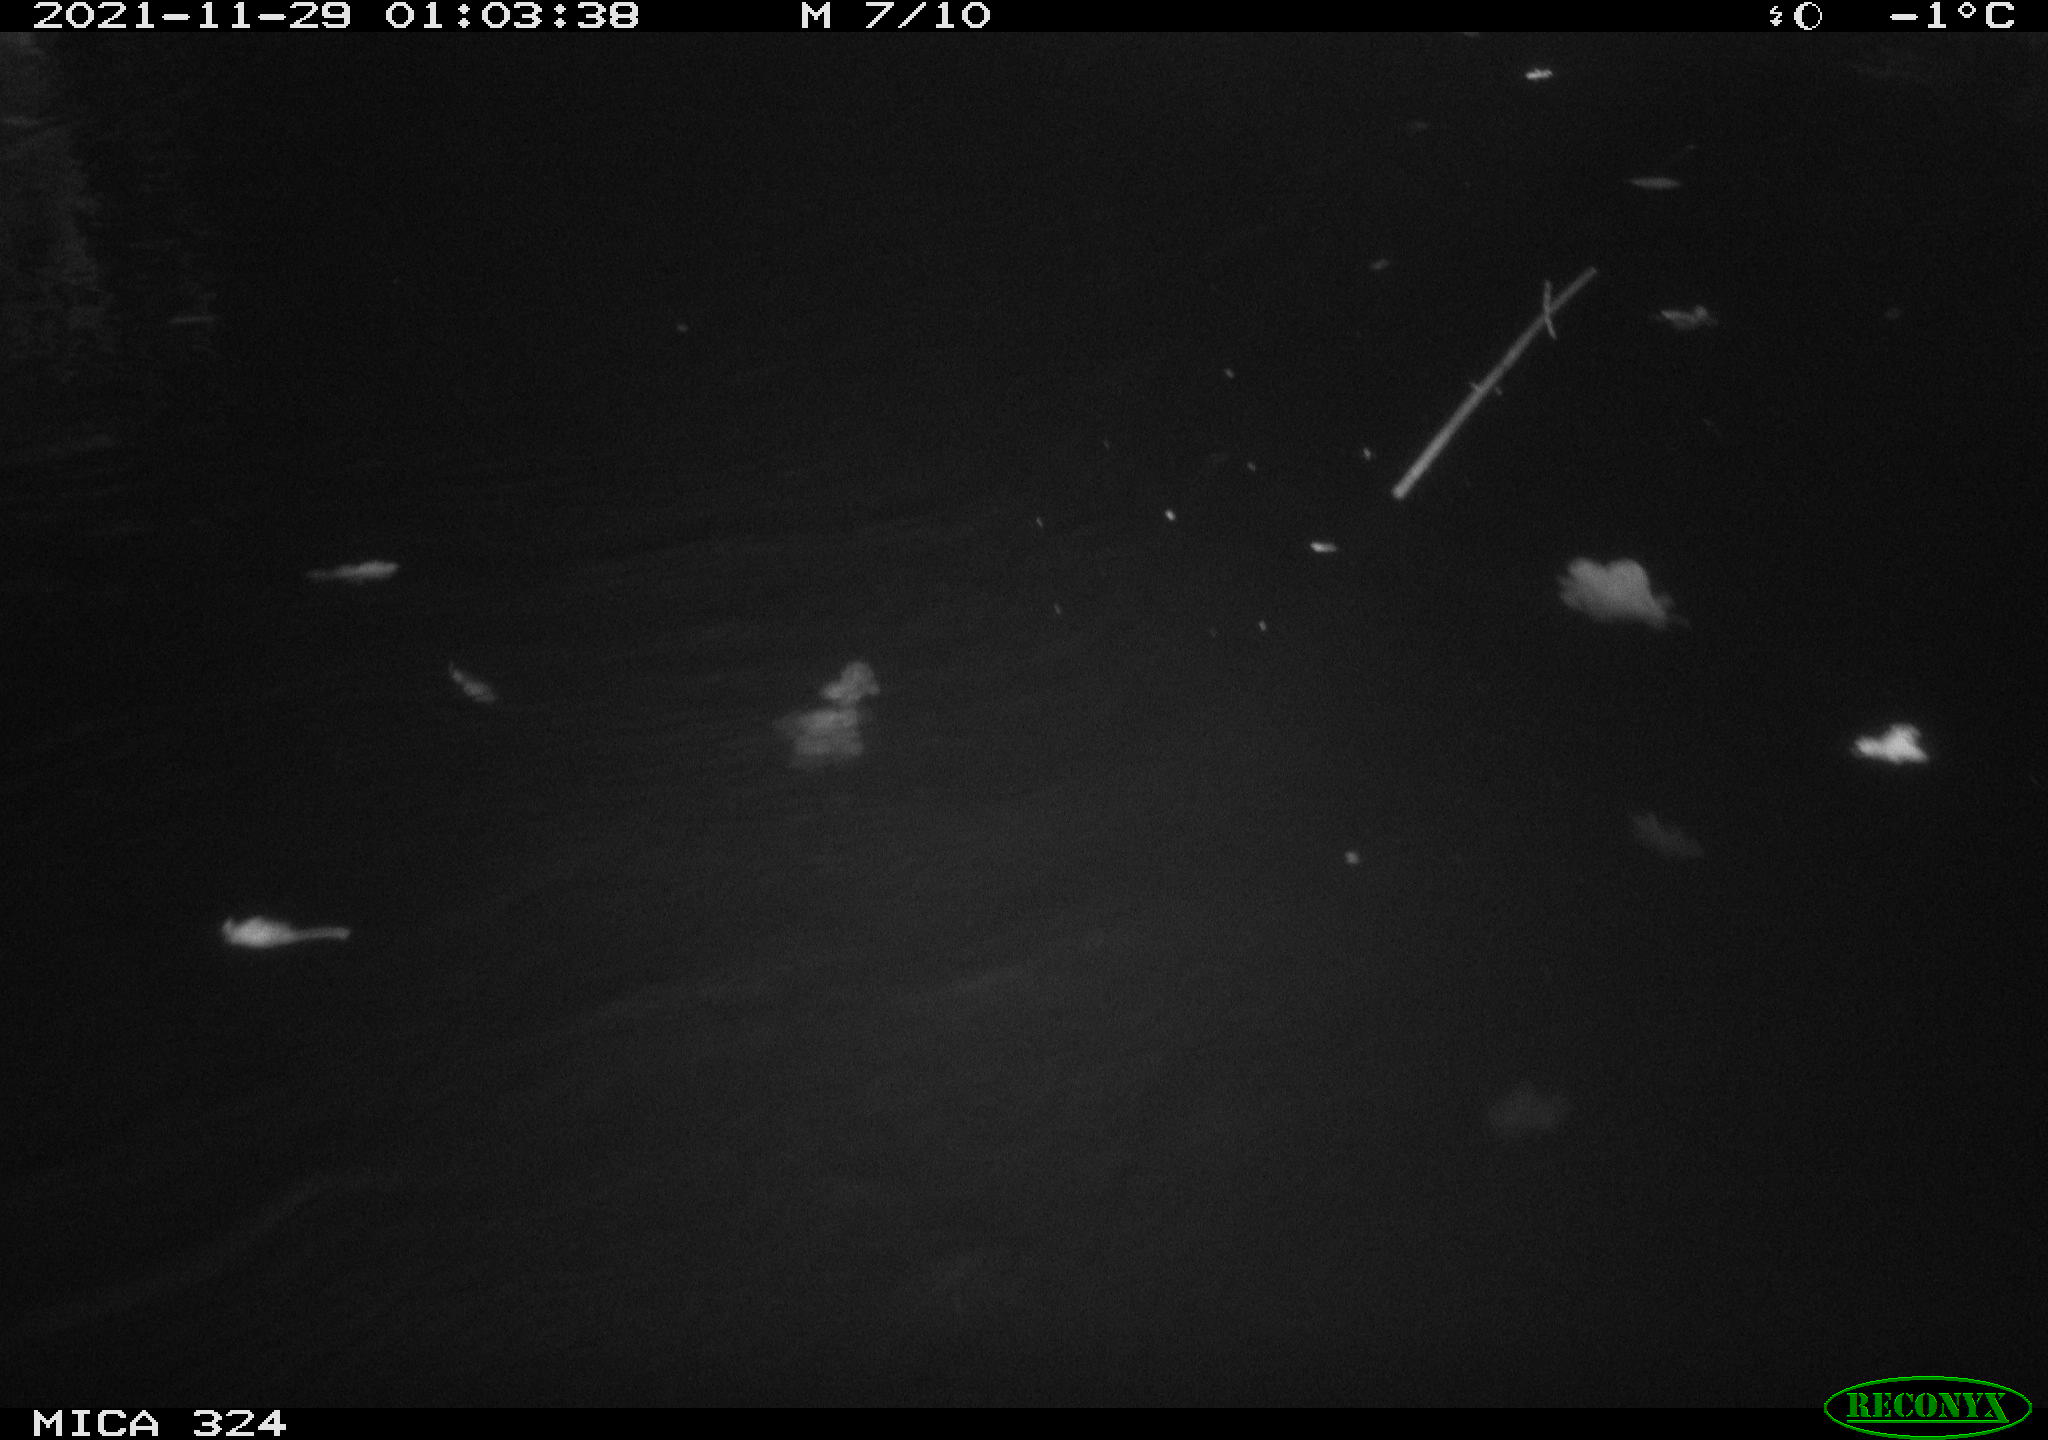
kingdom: Animalia
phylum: Chordata
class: Mammalia
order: Rodentia
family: Cricetidae
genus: Ondatra
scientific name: Ondatra zibethicus
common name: Muskrat
